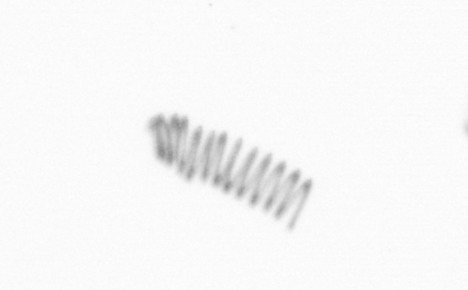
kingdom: Chromista
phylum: Ochrophyta
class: Bacillariophyceae
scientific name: Bacillariophyceae
